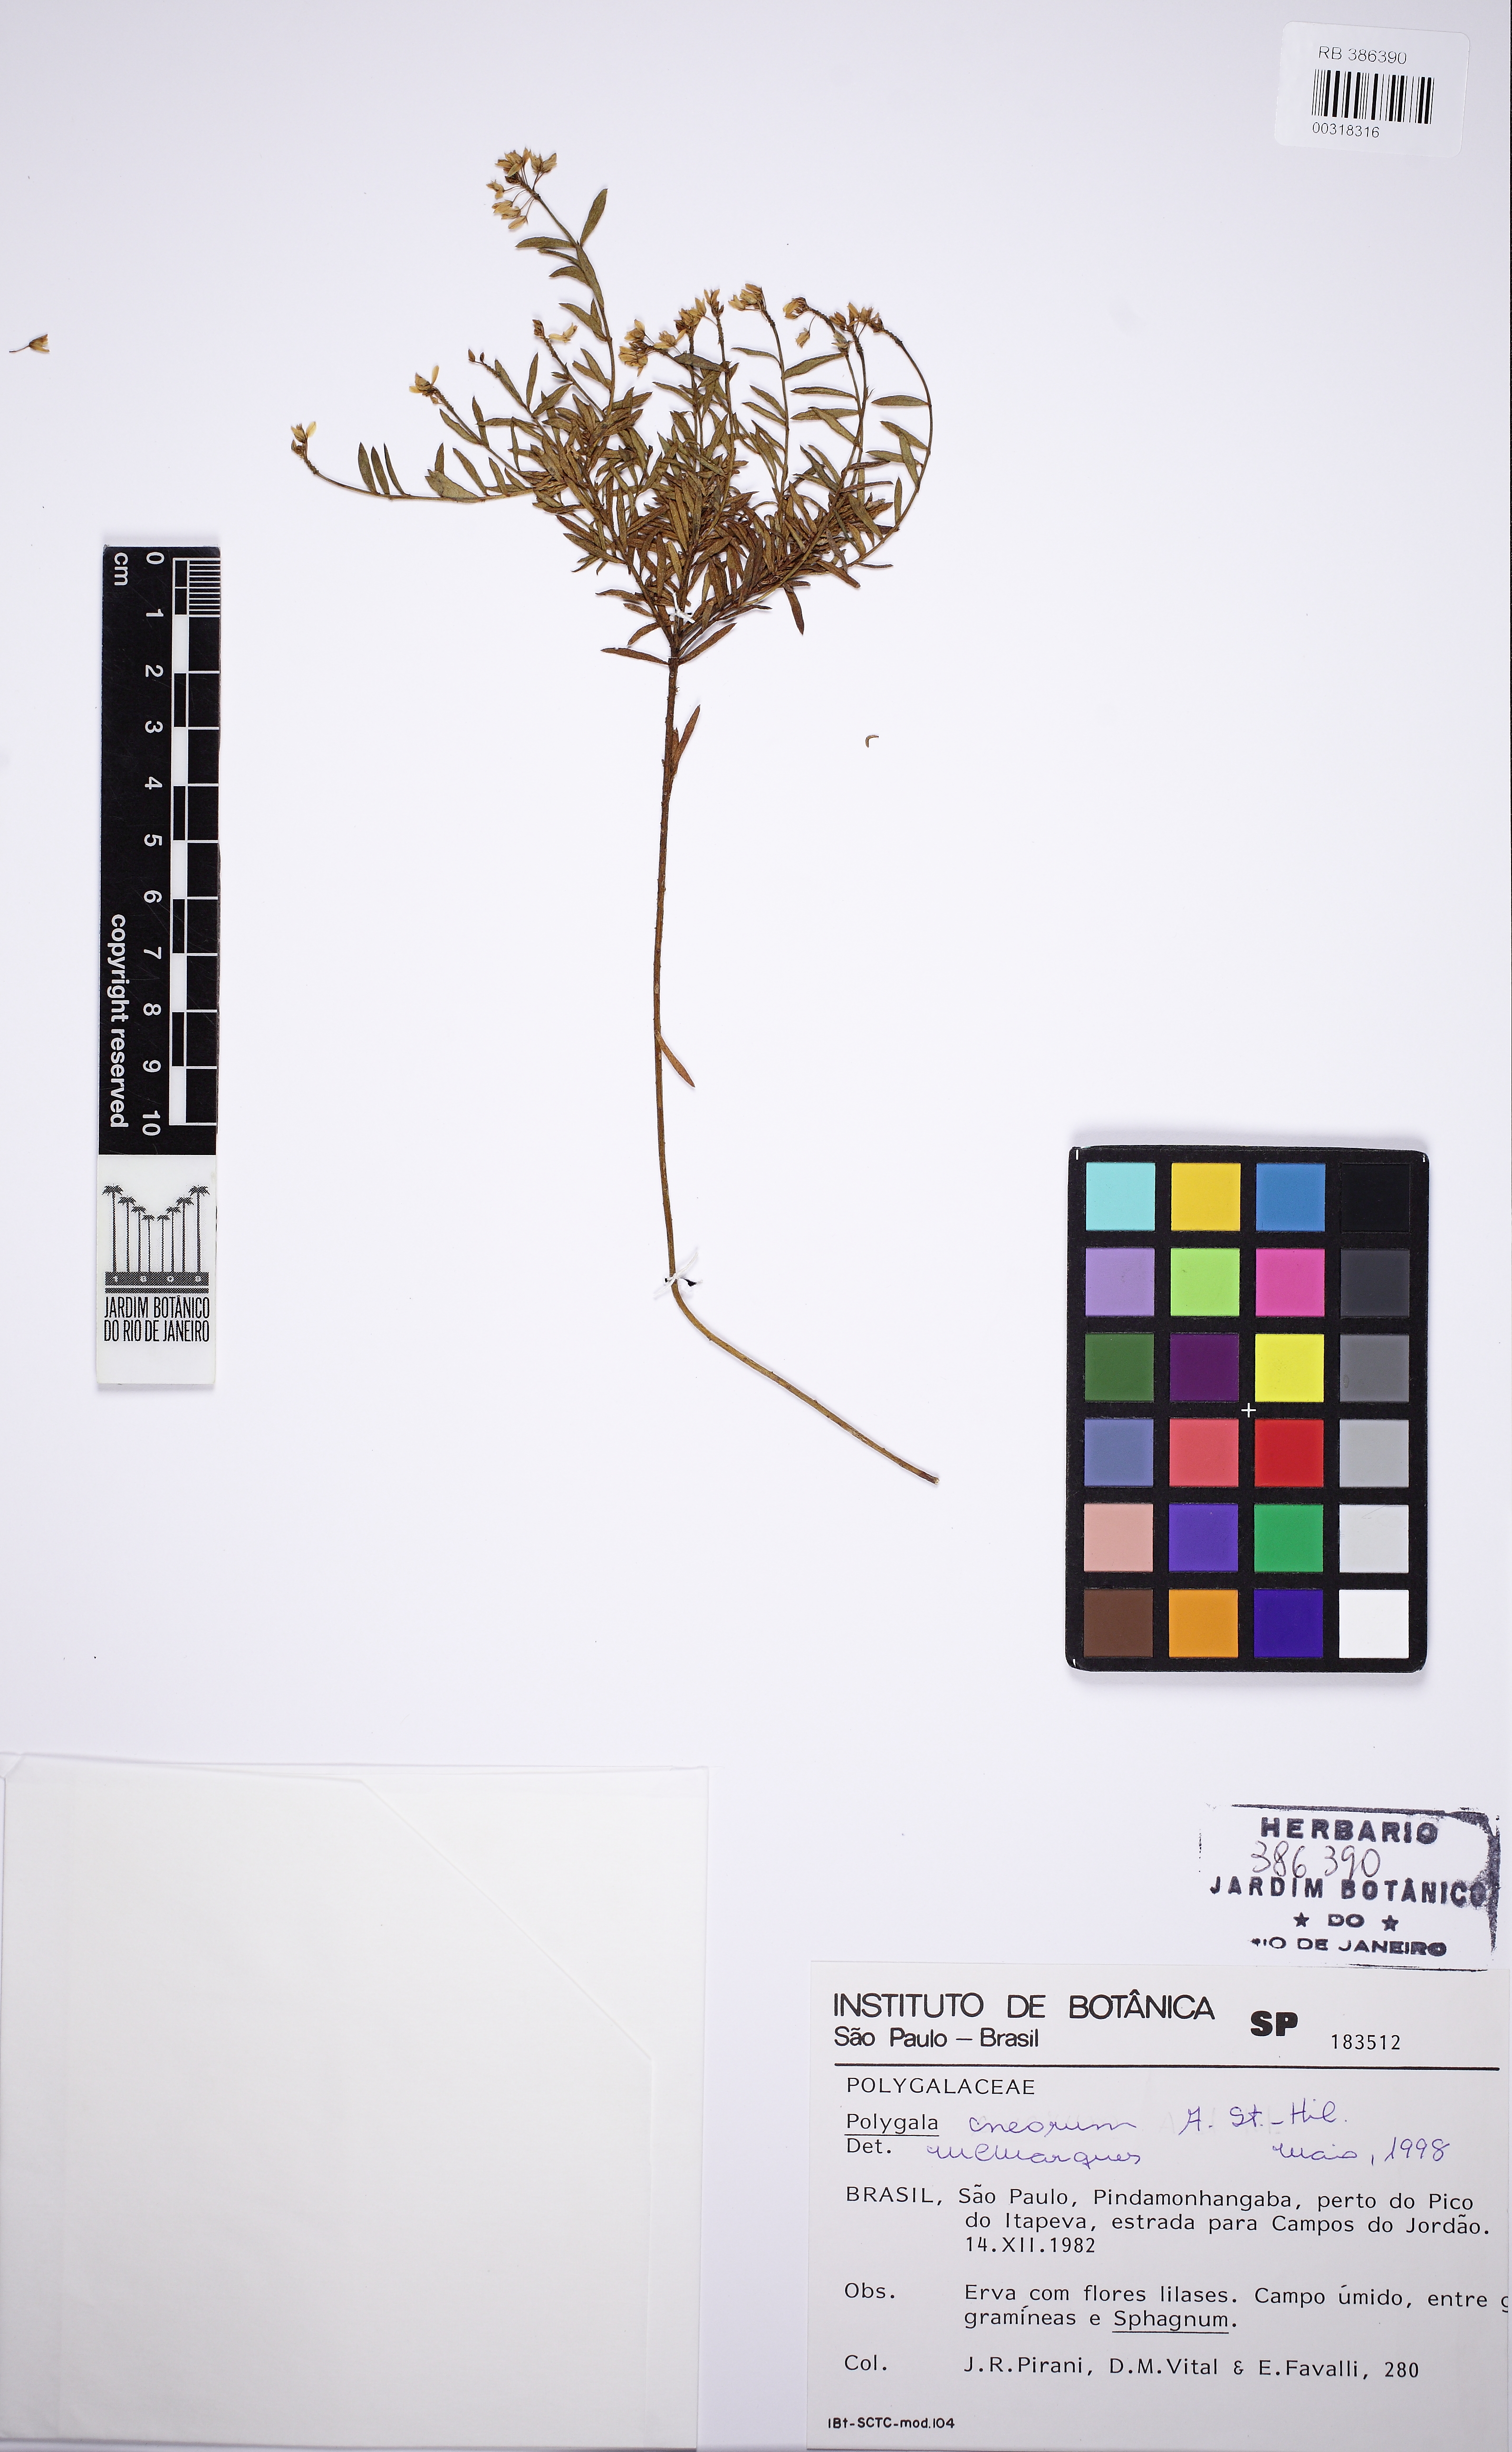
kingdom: Plantae
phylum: Tracheophyta
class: Magnoliopsida
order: Fabales
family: Polygalaceae
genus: Polygala
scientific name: Polygala cneorum
